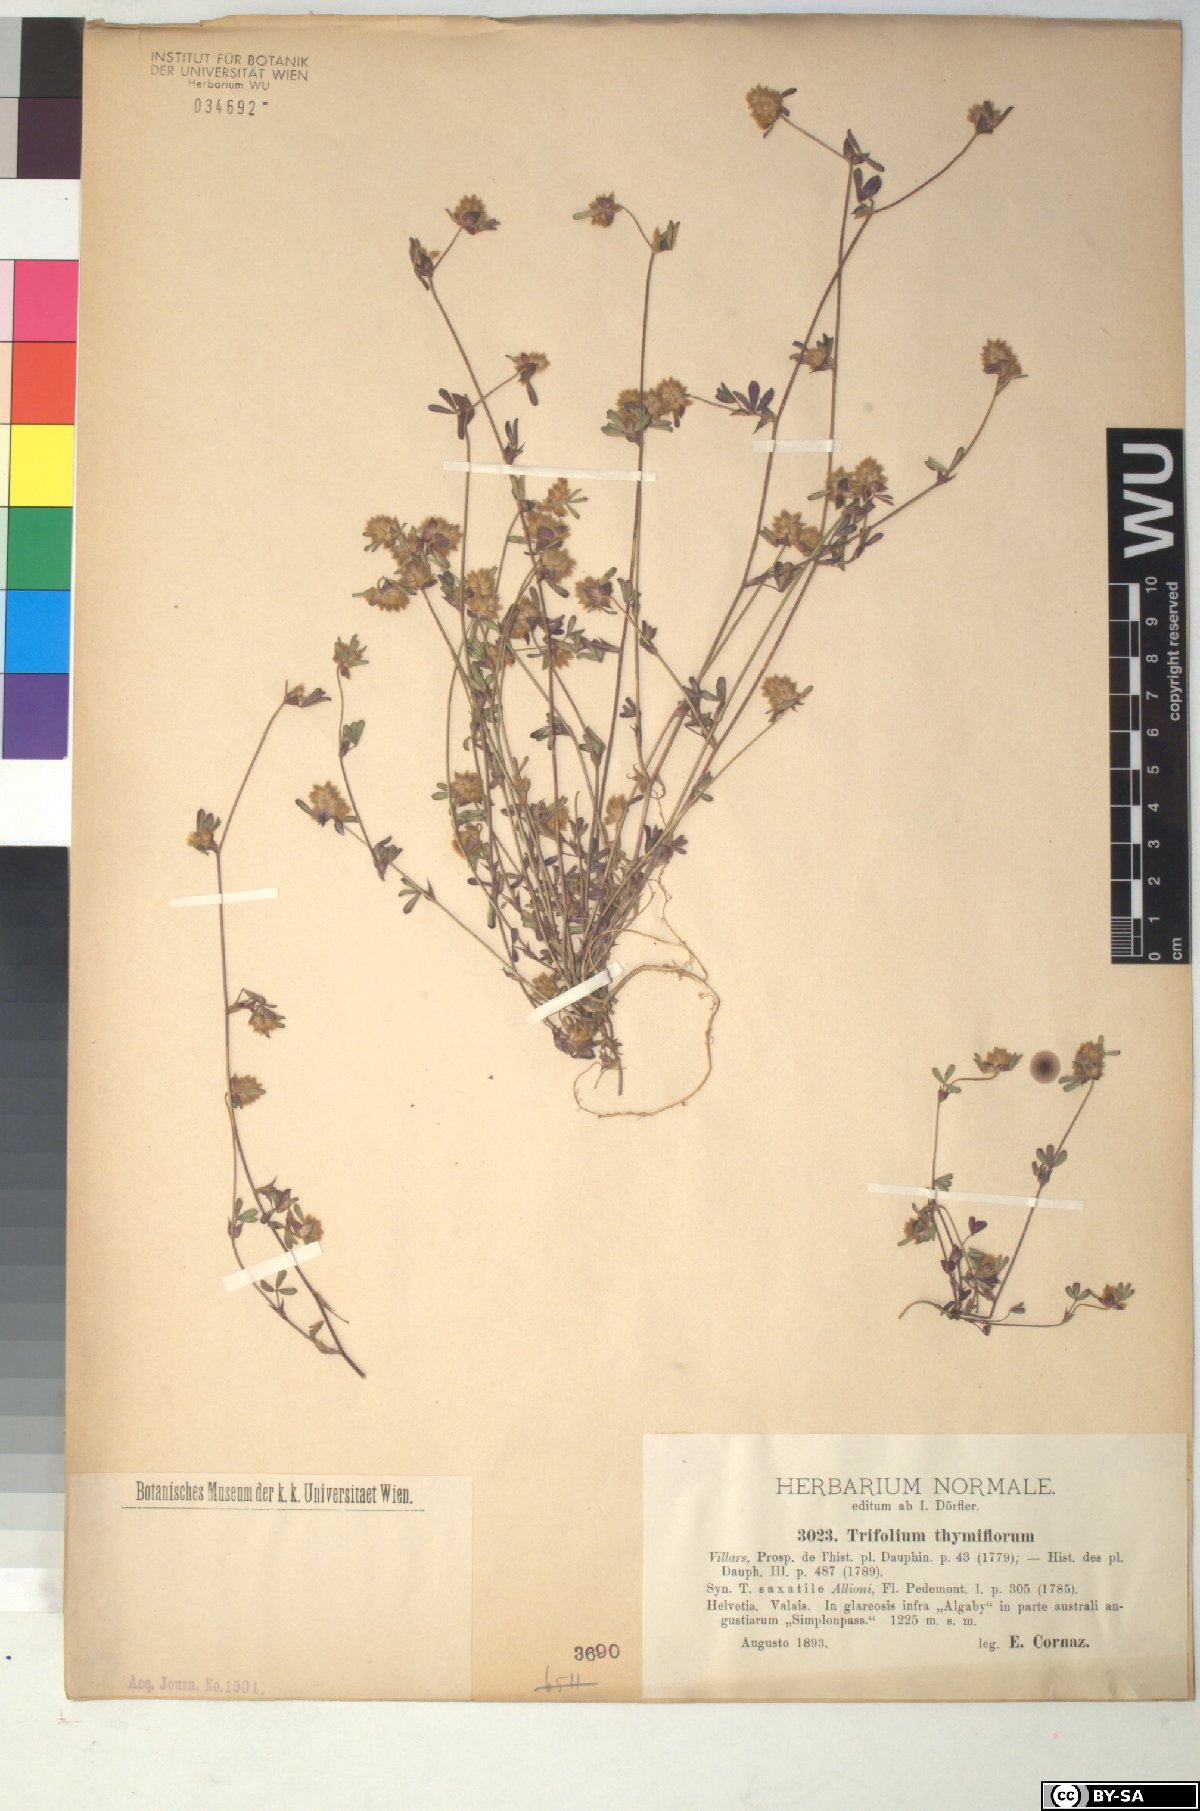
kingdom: Plantae
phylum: Tracheophyta
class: Magnoliopsida
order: Fabales
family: Fabaceae
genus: Trifolium
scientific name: Trifolium saxatile
